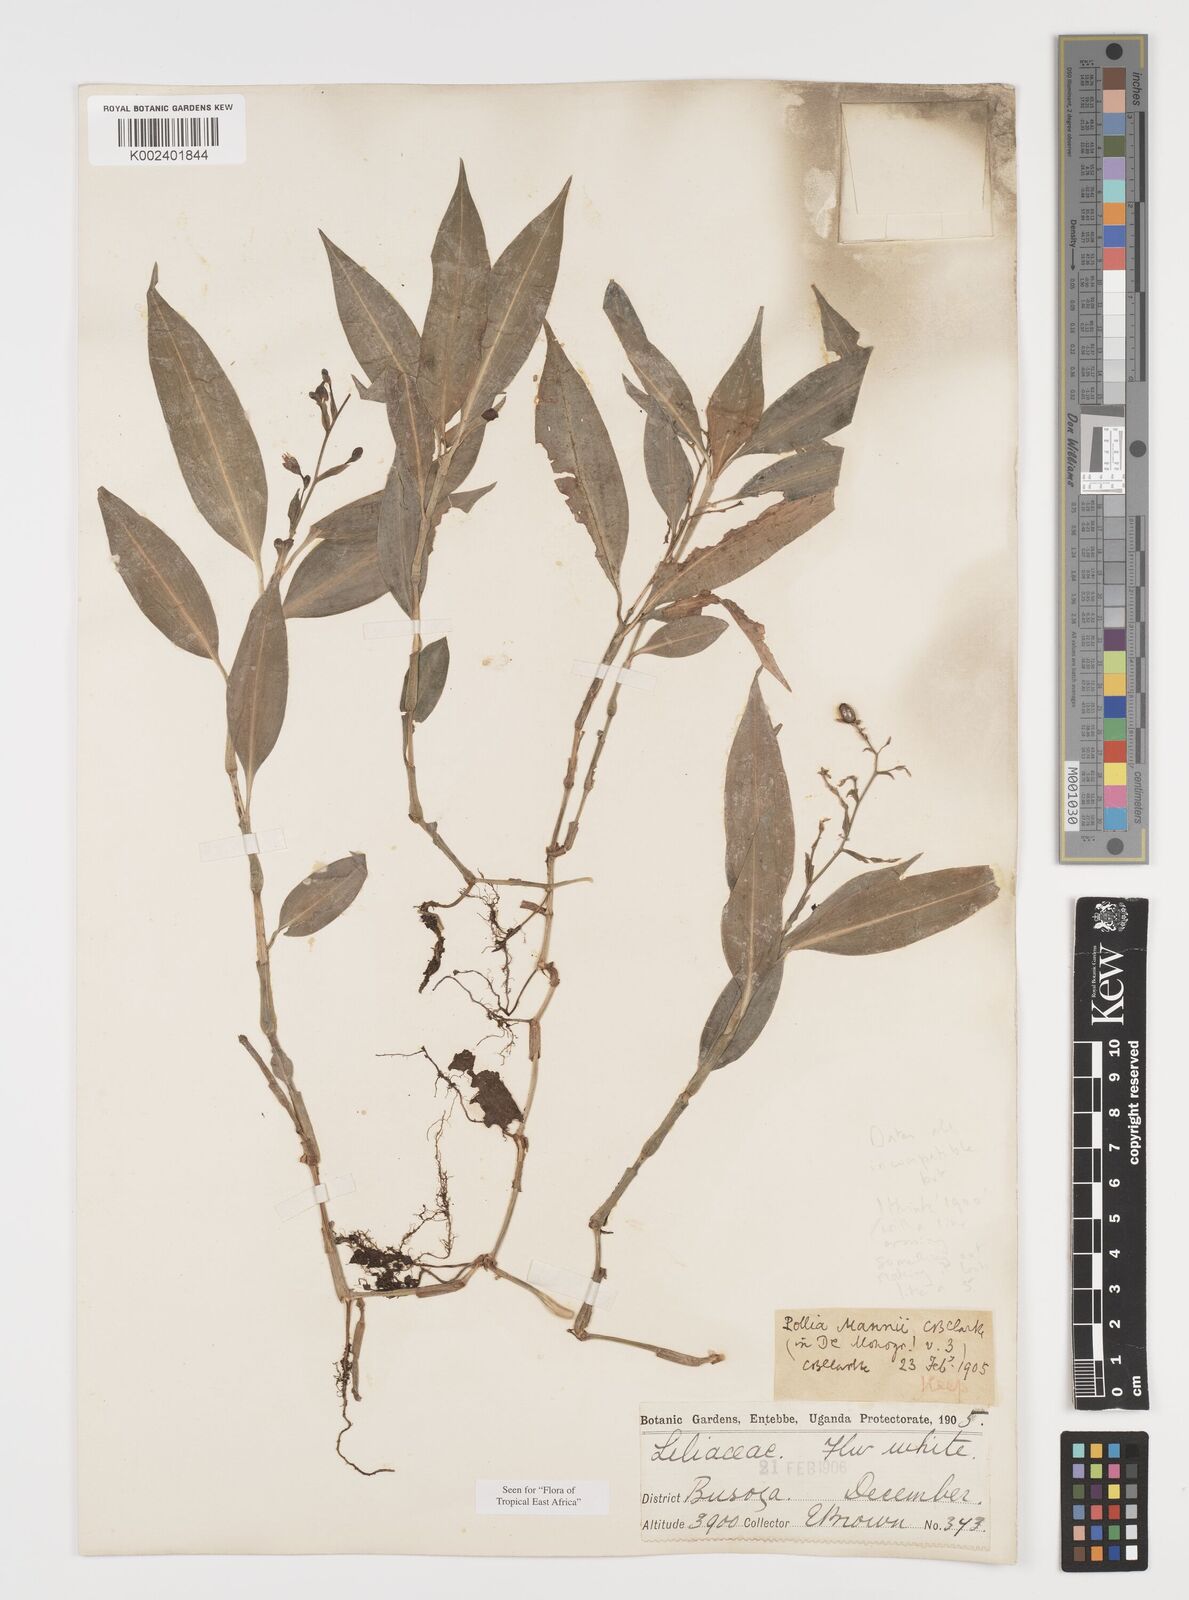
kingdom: Plantae
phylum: Tracheophyta
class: Liliopsida
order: Commelinales
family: Commelinaceae
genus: Pollia
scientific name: Pollia mannii
